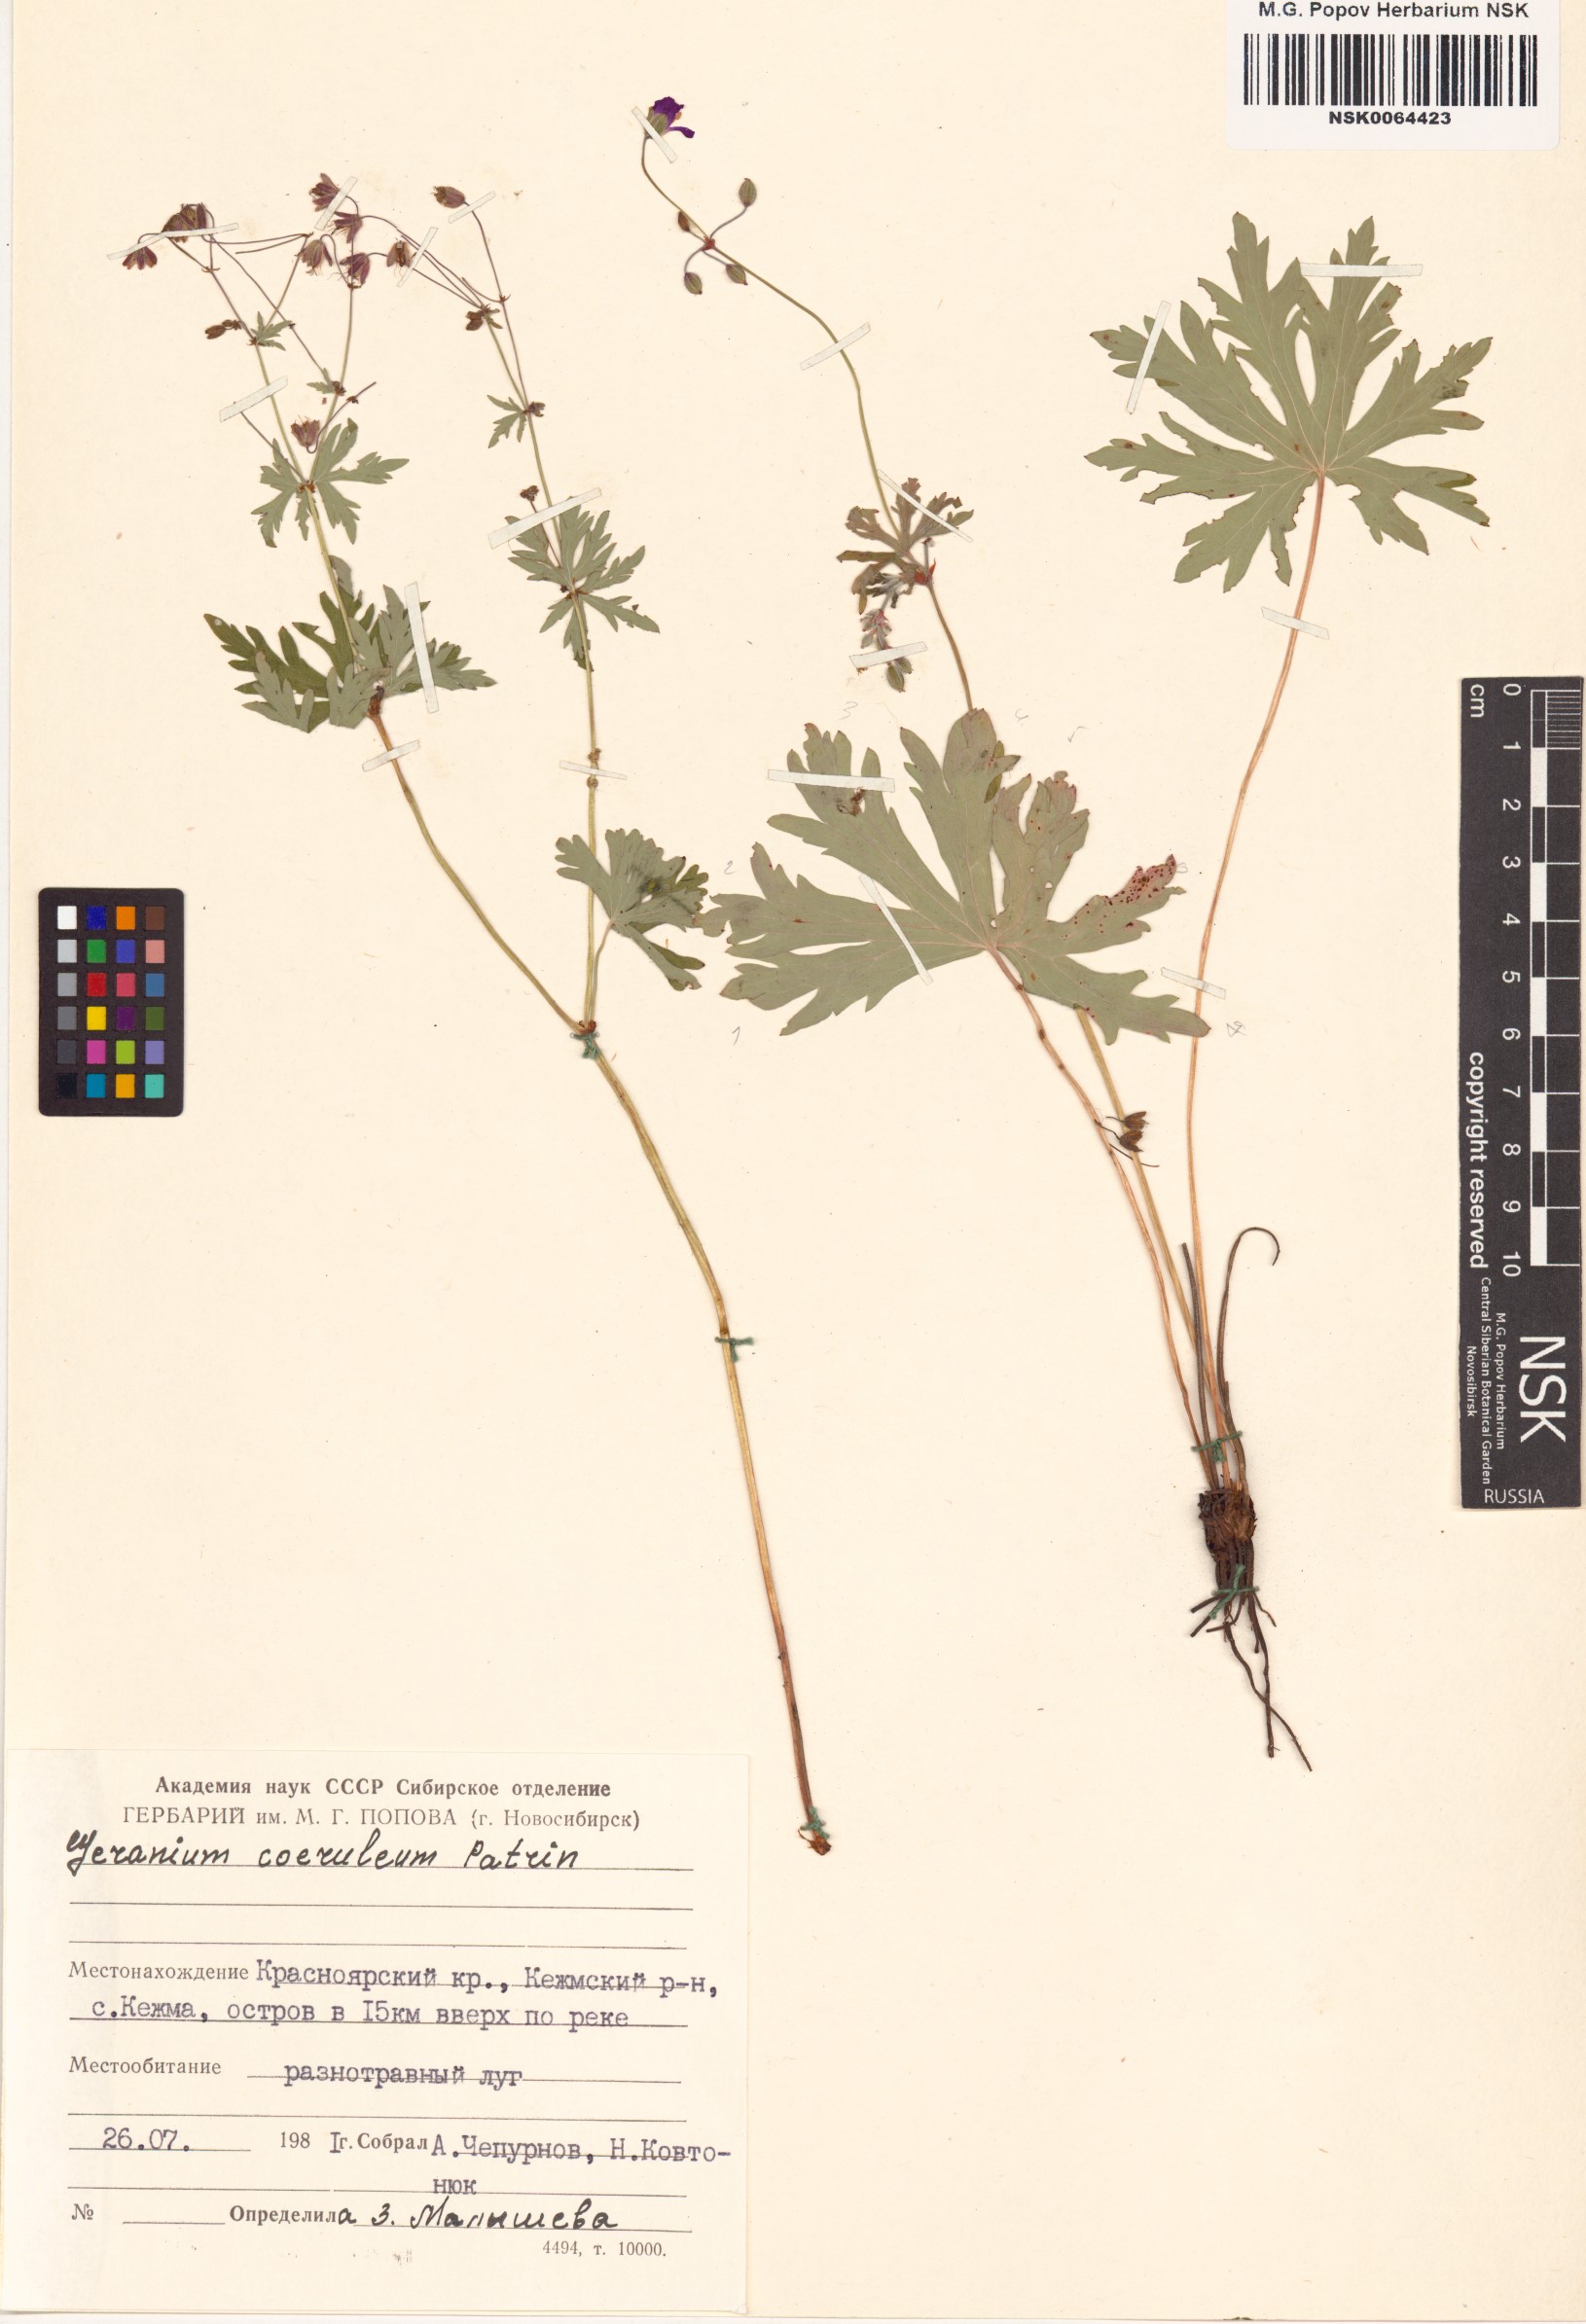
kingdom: Plantae
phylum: Tracheophyta
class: Magnoliopsida
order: Geraniales
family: Geraniaceae
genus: Geranium
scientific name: Geranium pseudosibiricum
